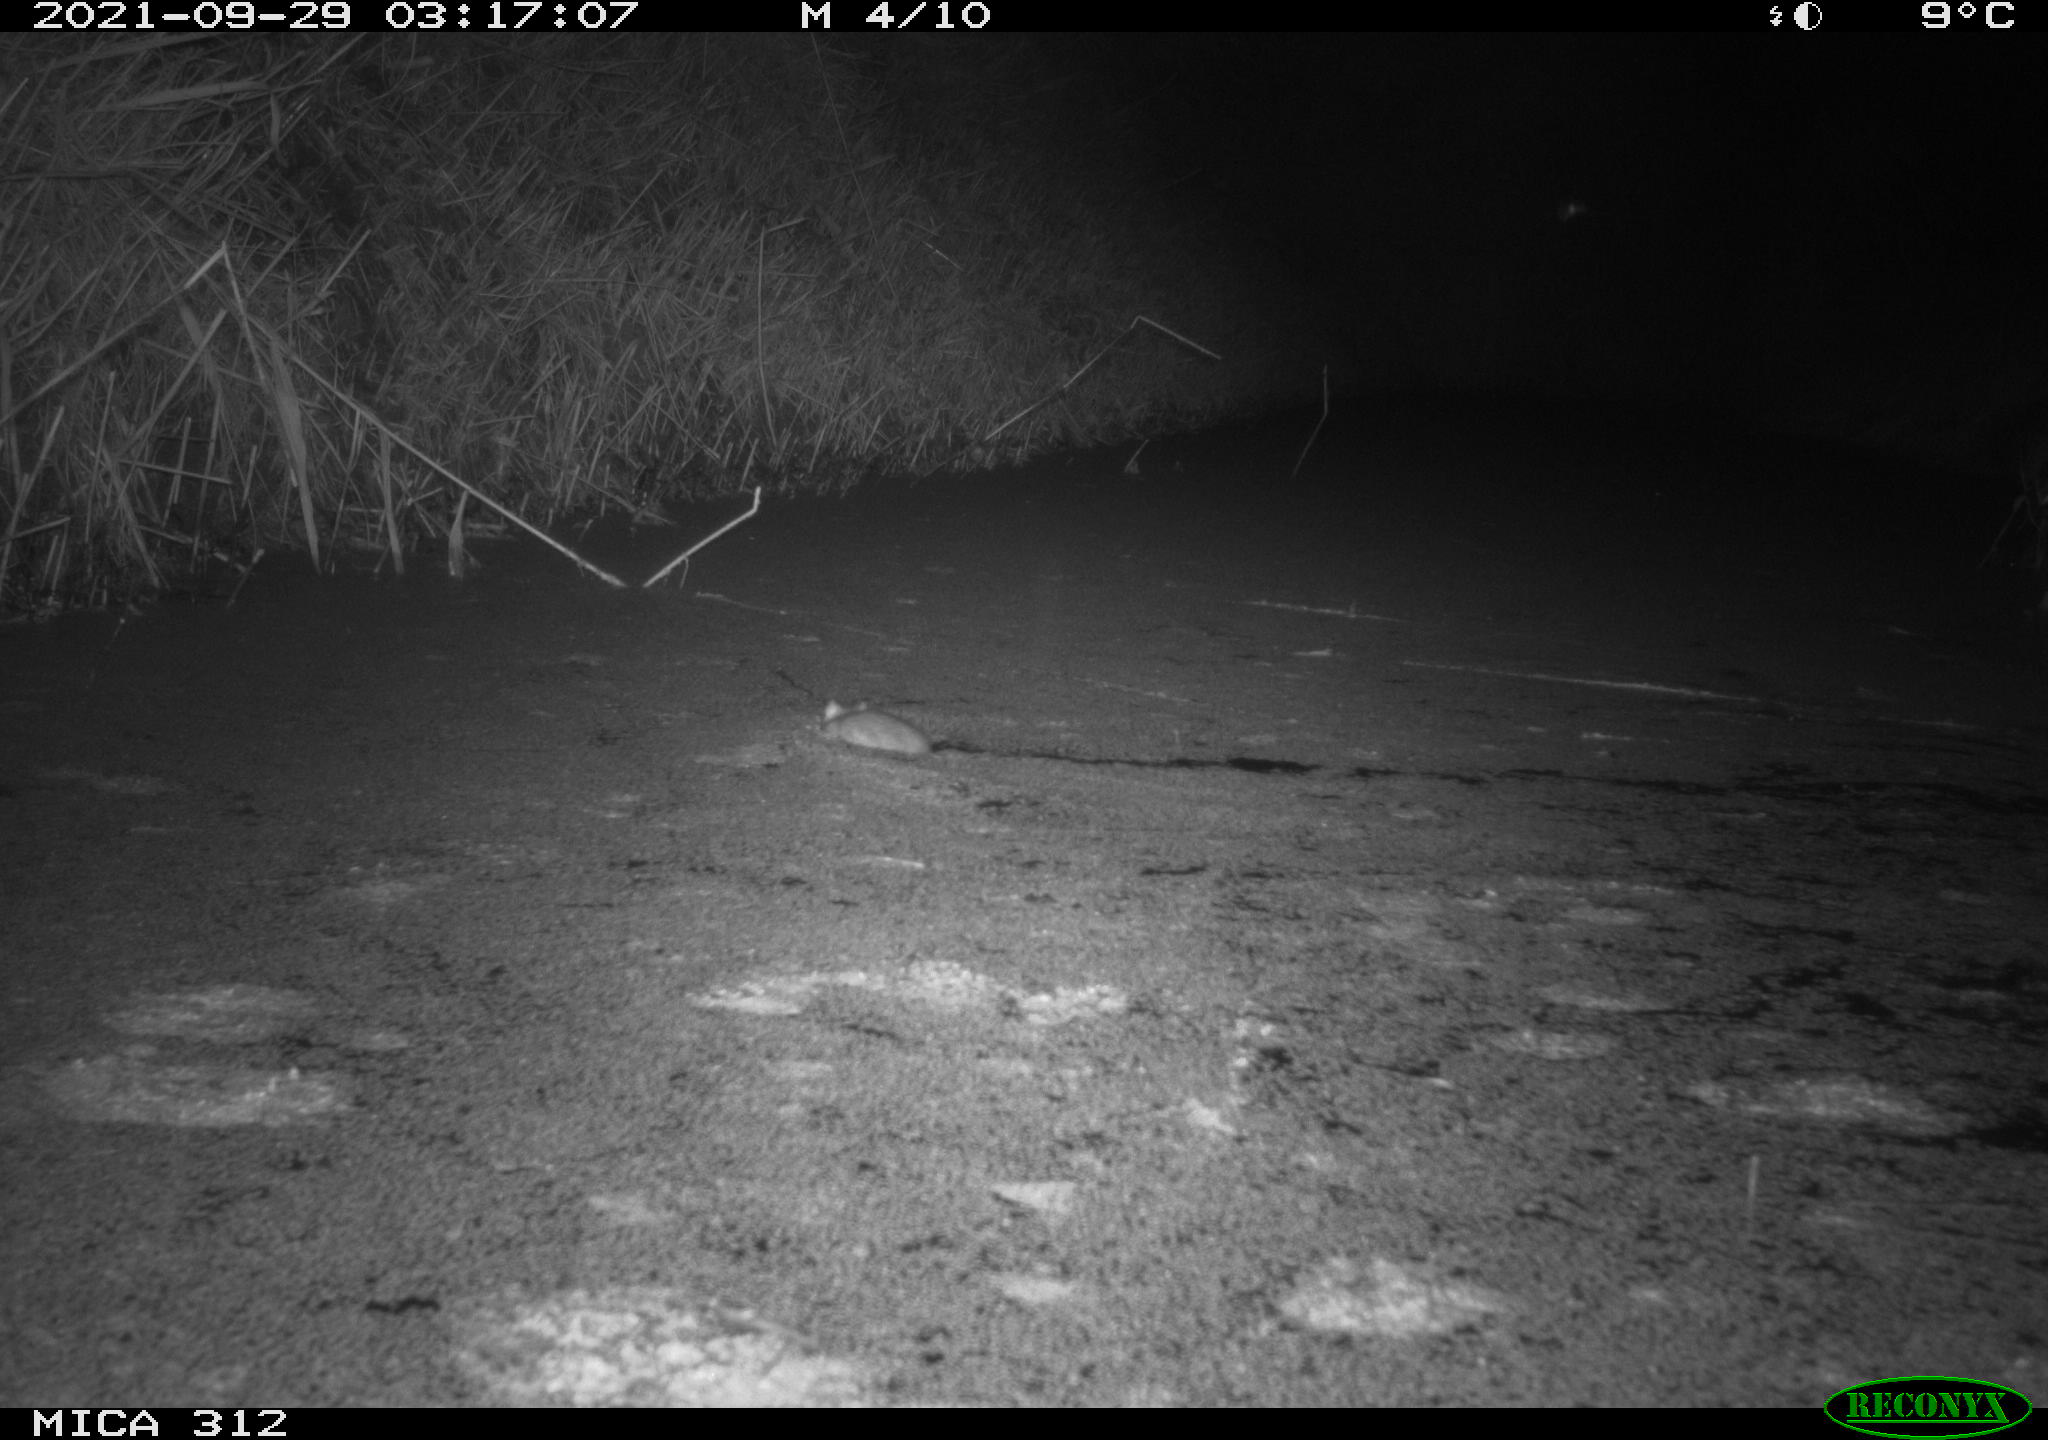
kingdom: Animalia
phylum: Chordata
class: Mammalia
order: Rodentia
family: Muridae
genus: Rattus
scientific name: Rattus norvegicus
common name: Brown rat
